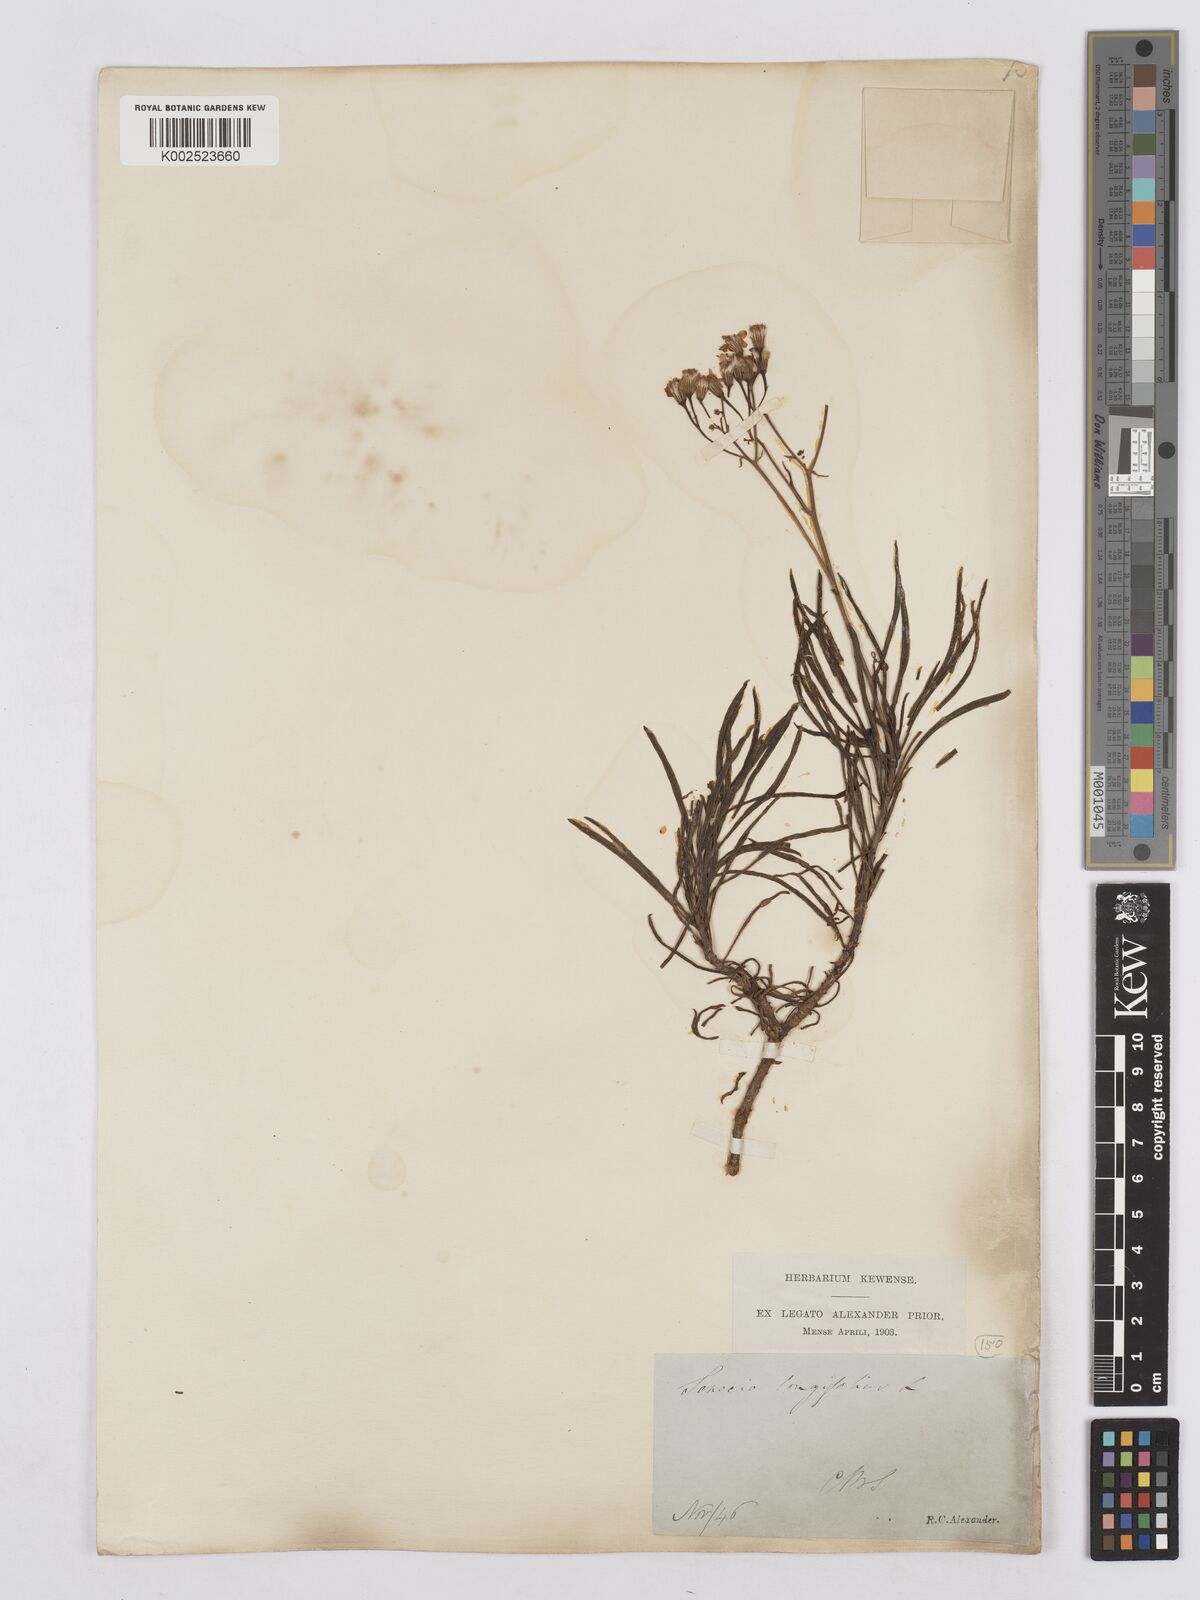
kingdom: Plantae
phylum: Tracheophyta
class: Magnoliopsida
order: Asterales
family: Asteraceae
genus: Senecio
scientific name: Senecio linifolius
